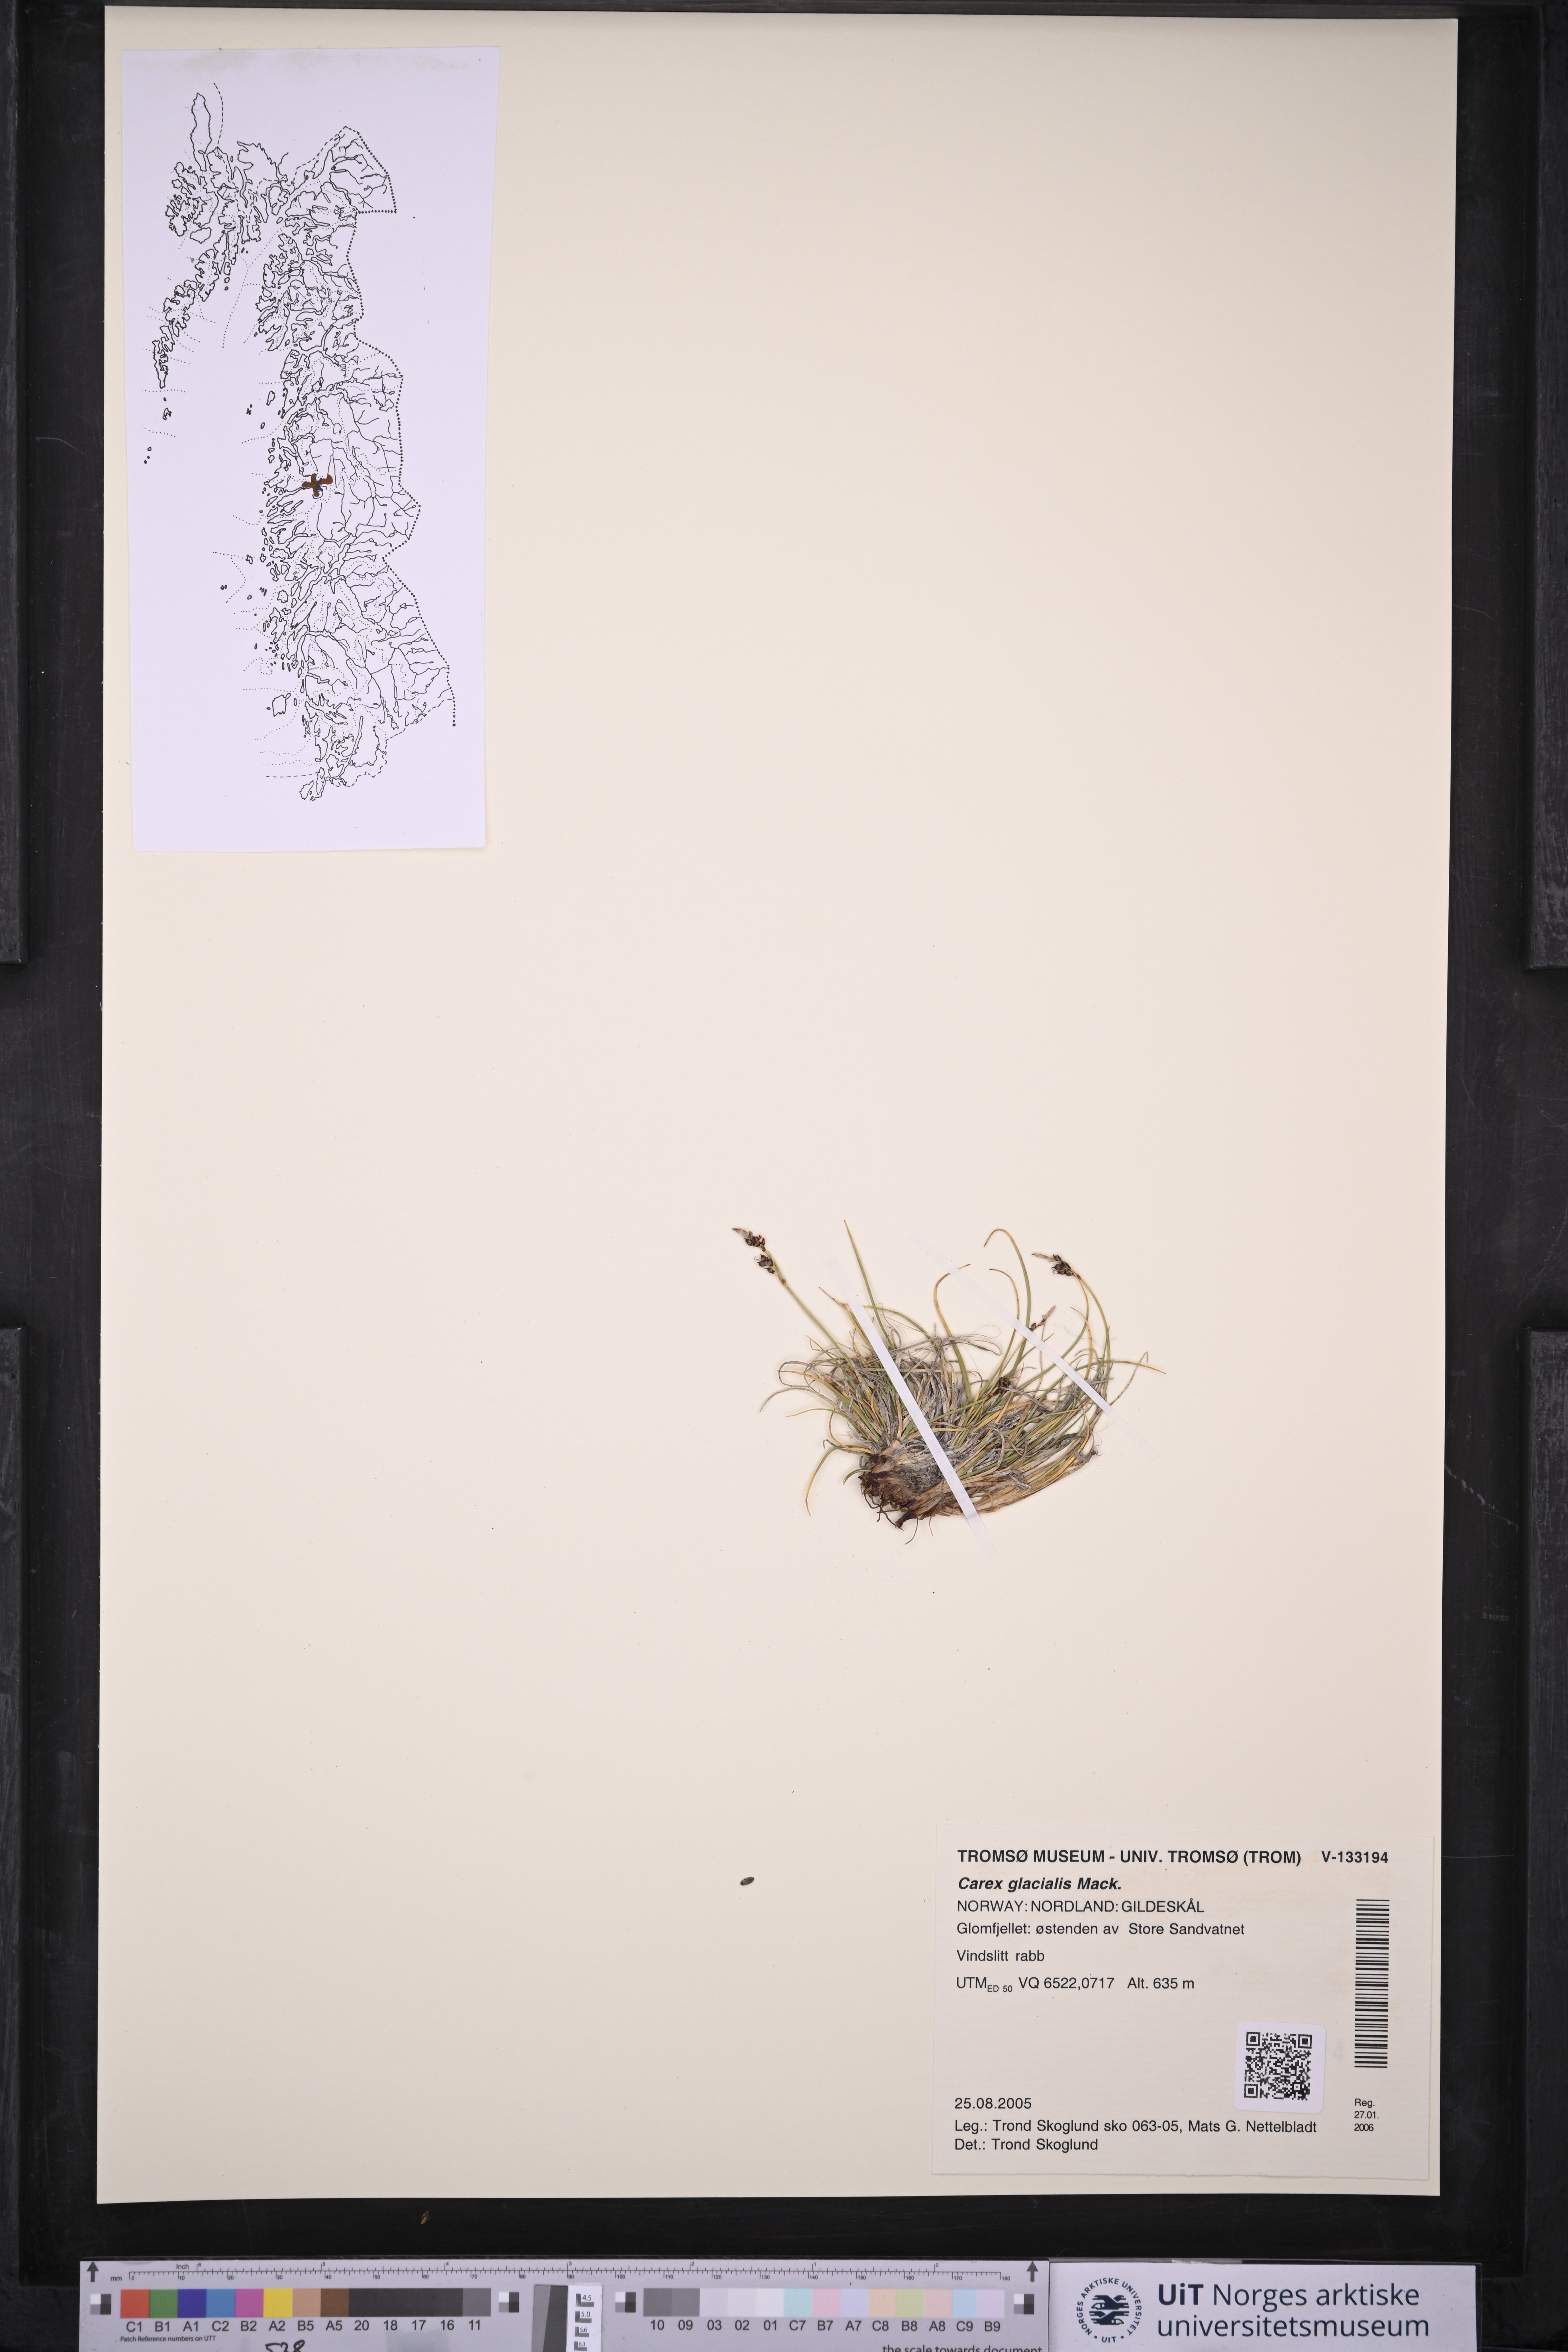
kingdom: Plantae
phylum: Tracheophyta
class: Liliopsida
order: Poales
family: Cyperaceae
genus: Carex
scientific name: Carex glacialis
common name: Newfoundland sedge
